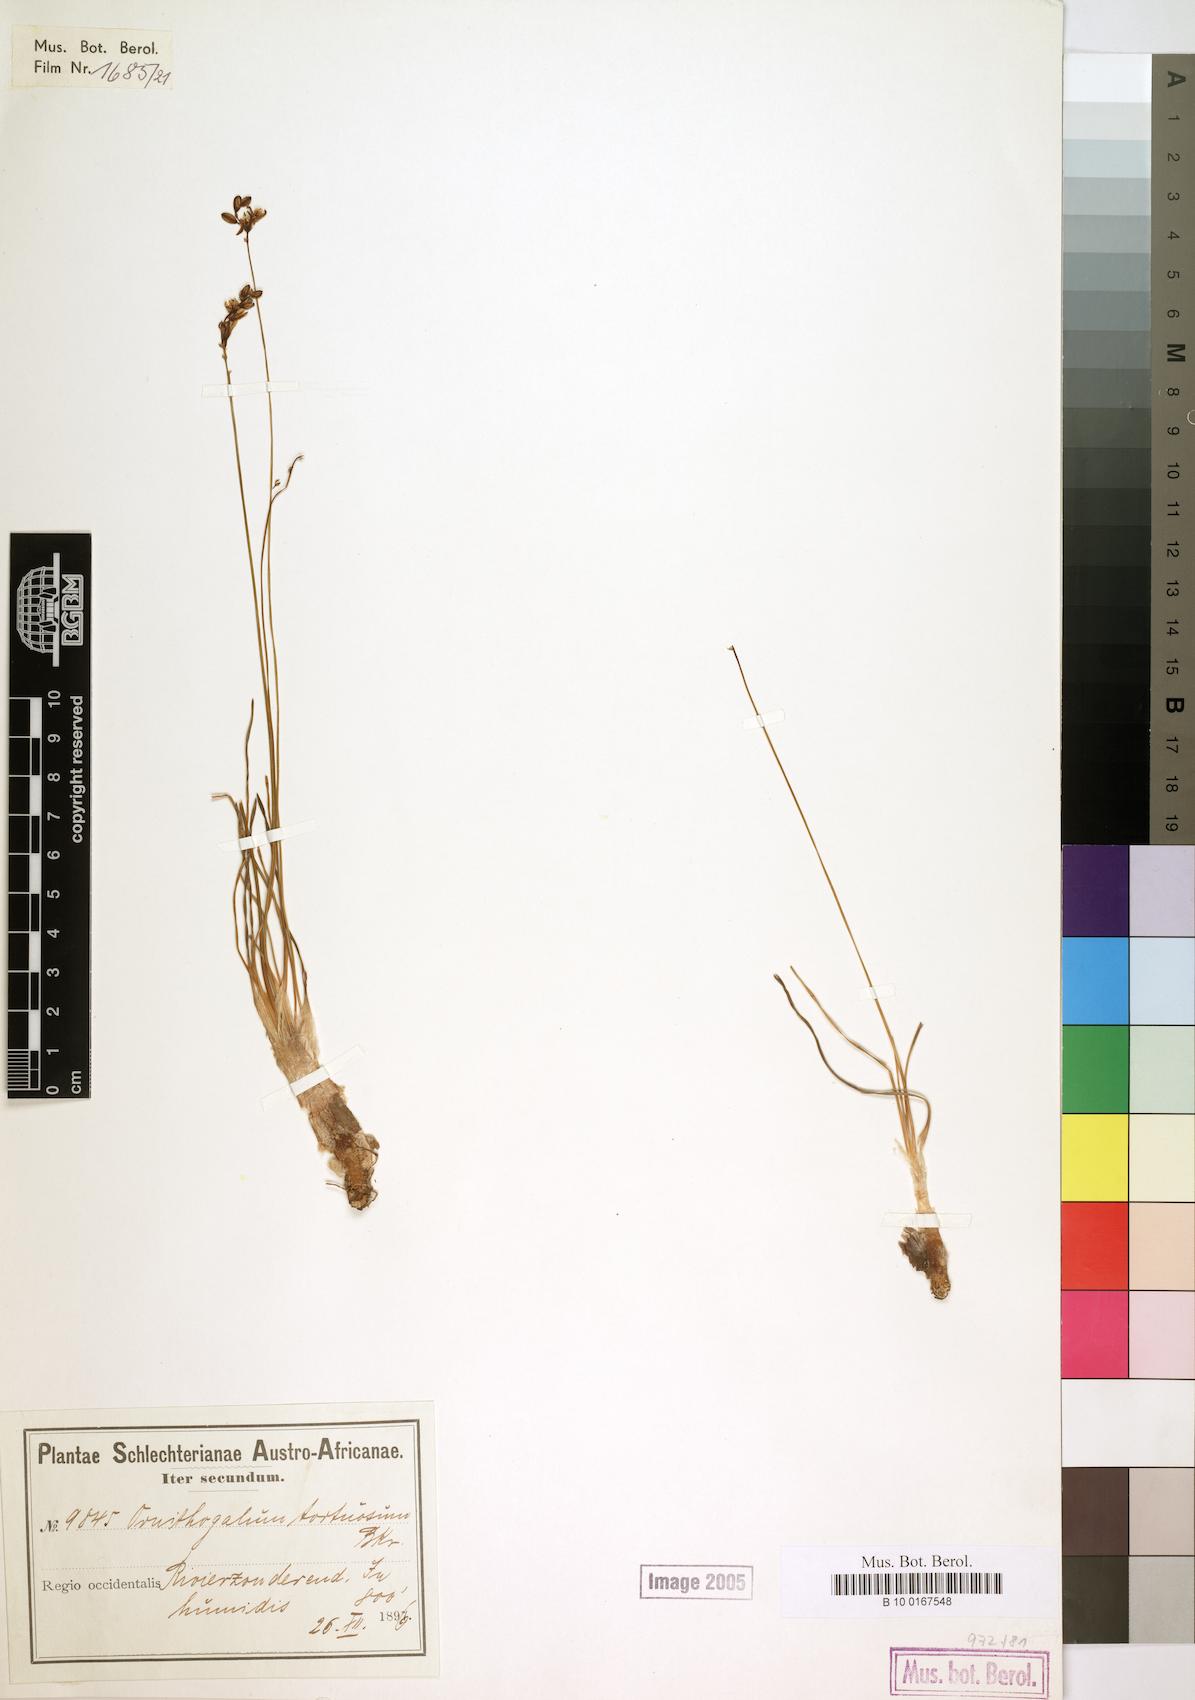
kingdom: Plantae
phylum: Tracheophyta
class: Liliopsida
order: Asparagales
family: Asparagaceae
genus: Ornithogalum
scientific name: Ornithogalum thunbergii
